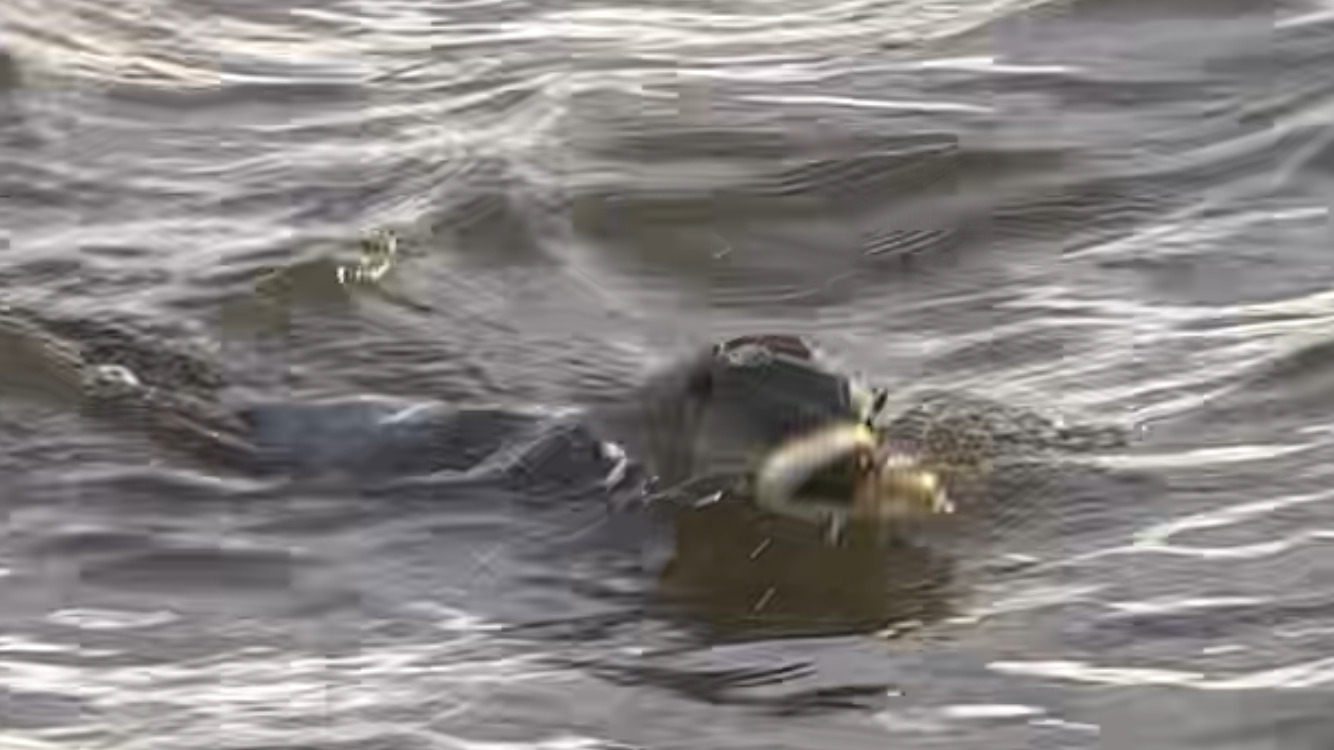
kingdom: Animalia
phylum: Chordata
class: Mammalia
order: Carnivora
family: Mustelidae
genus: Lutra
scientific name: Lutra lutra
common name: Odder
